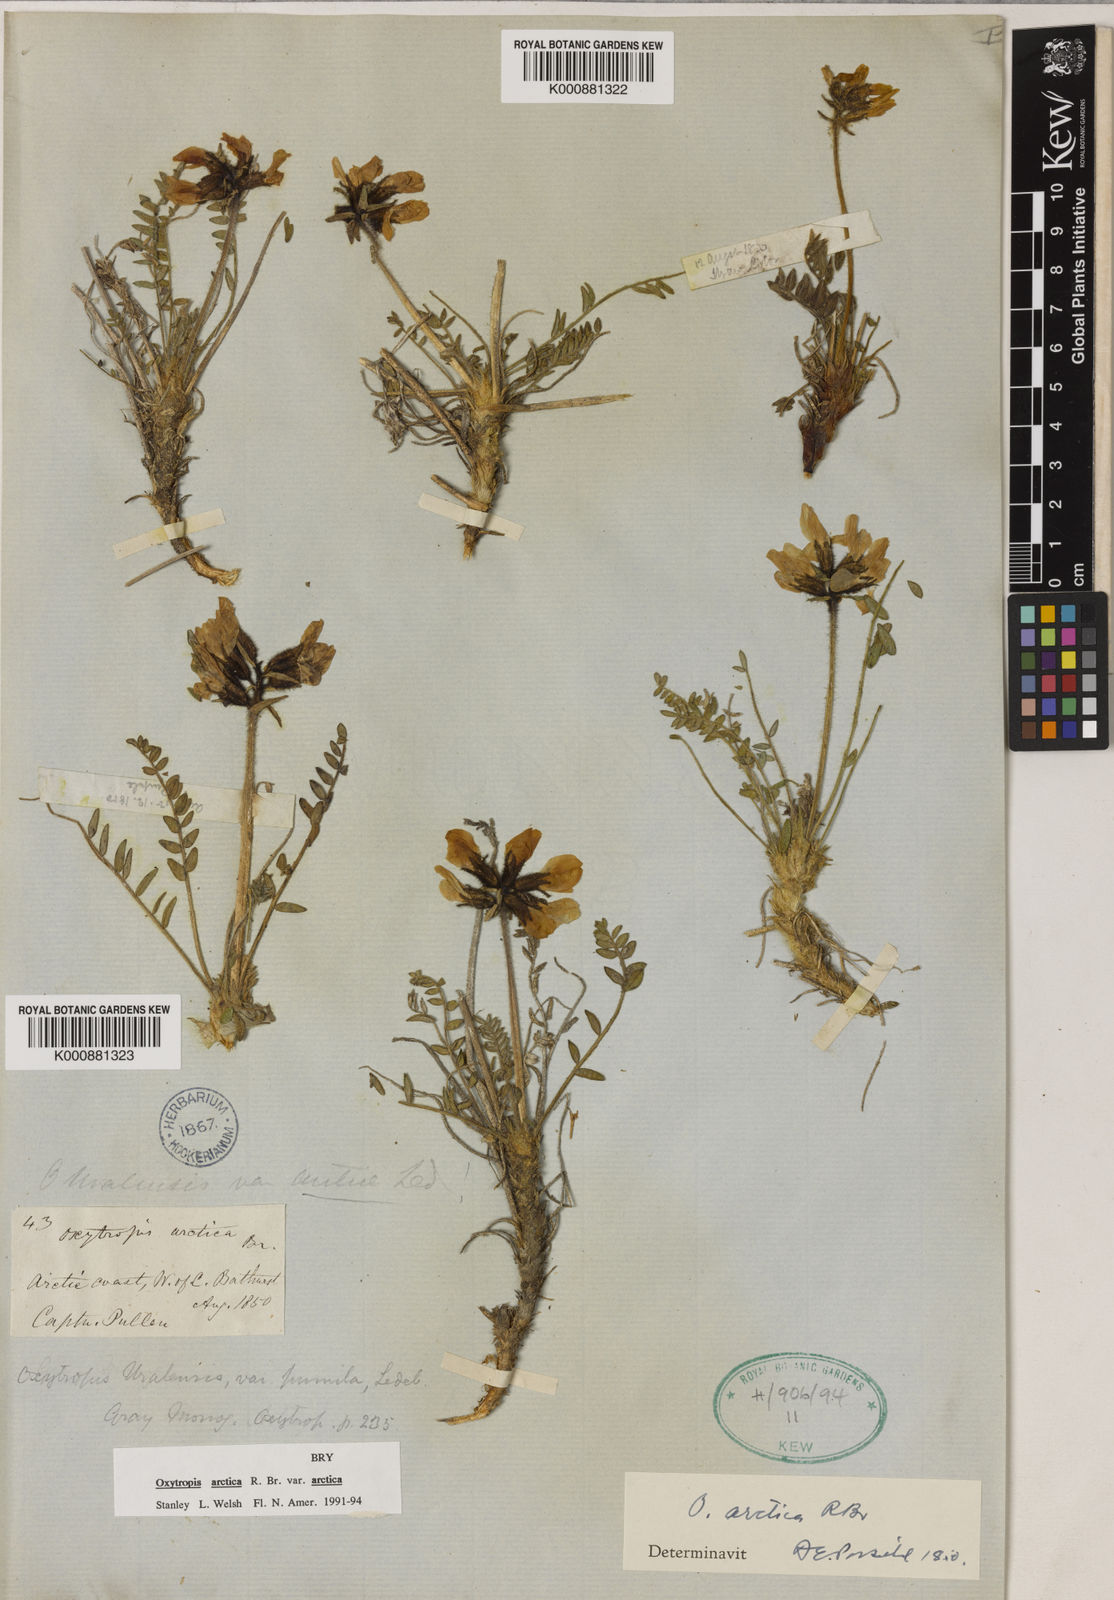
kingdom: Plantae
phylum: Tracheophyta
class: Magnoliopsida
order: Fabales
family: Fabaceae
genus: Oxytropis
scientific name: Oxytropis arctica
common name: Arctic locoweed
